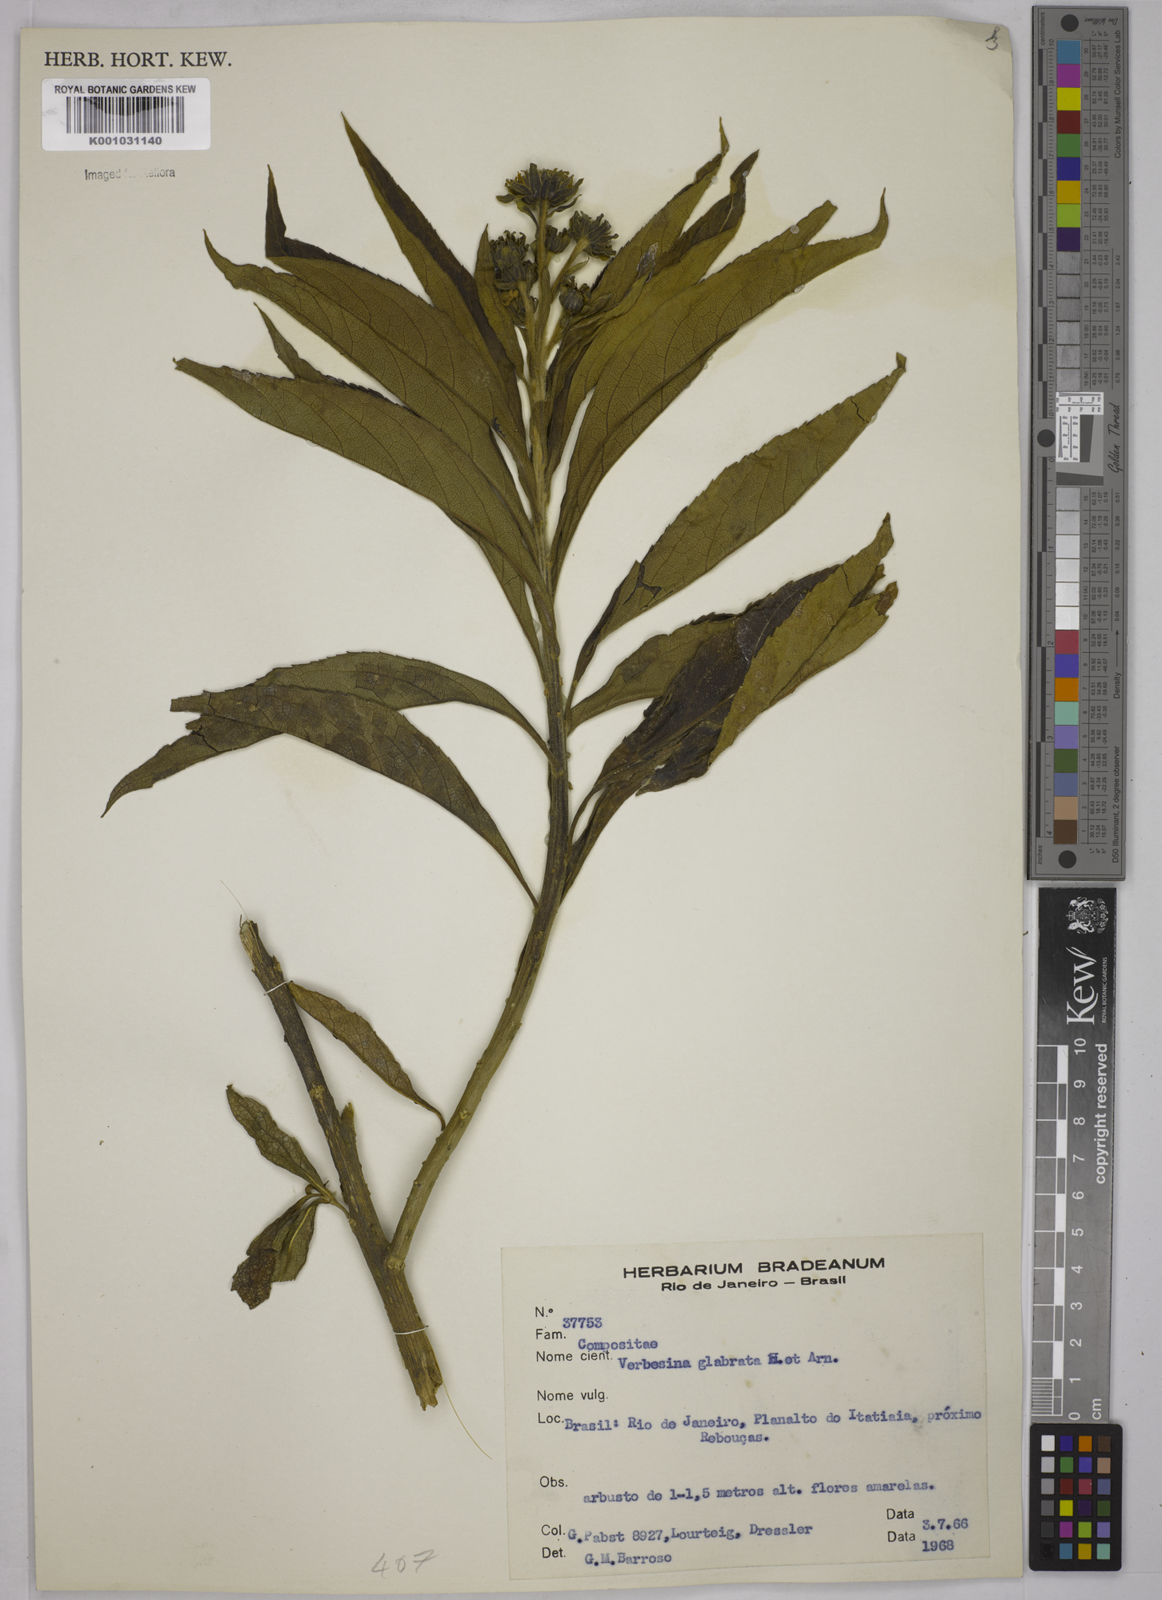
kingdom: Plantae
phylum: Tracheophyta
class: Magnoliopsida
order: Asterales
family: Asteraceae
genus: Verbesina
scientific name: Verbesina glabrata
